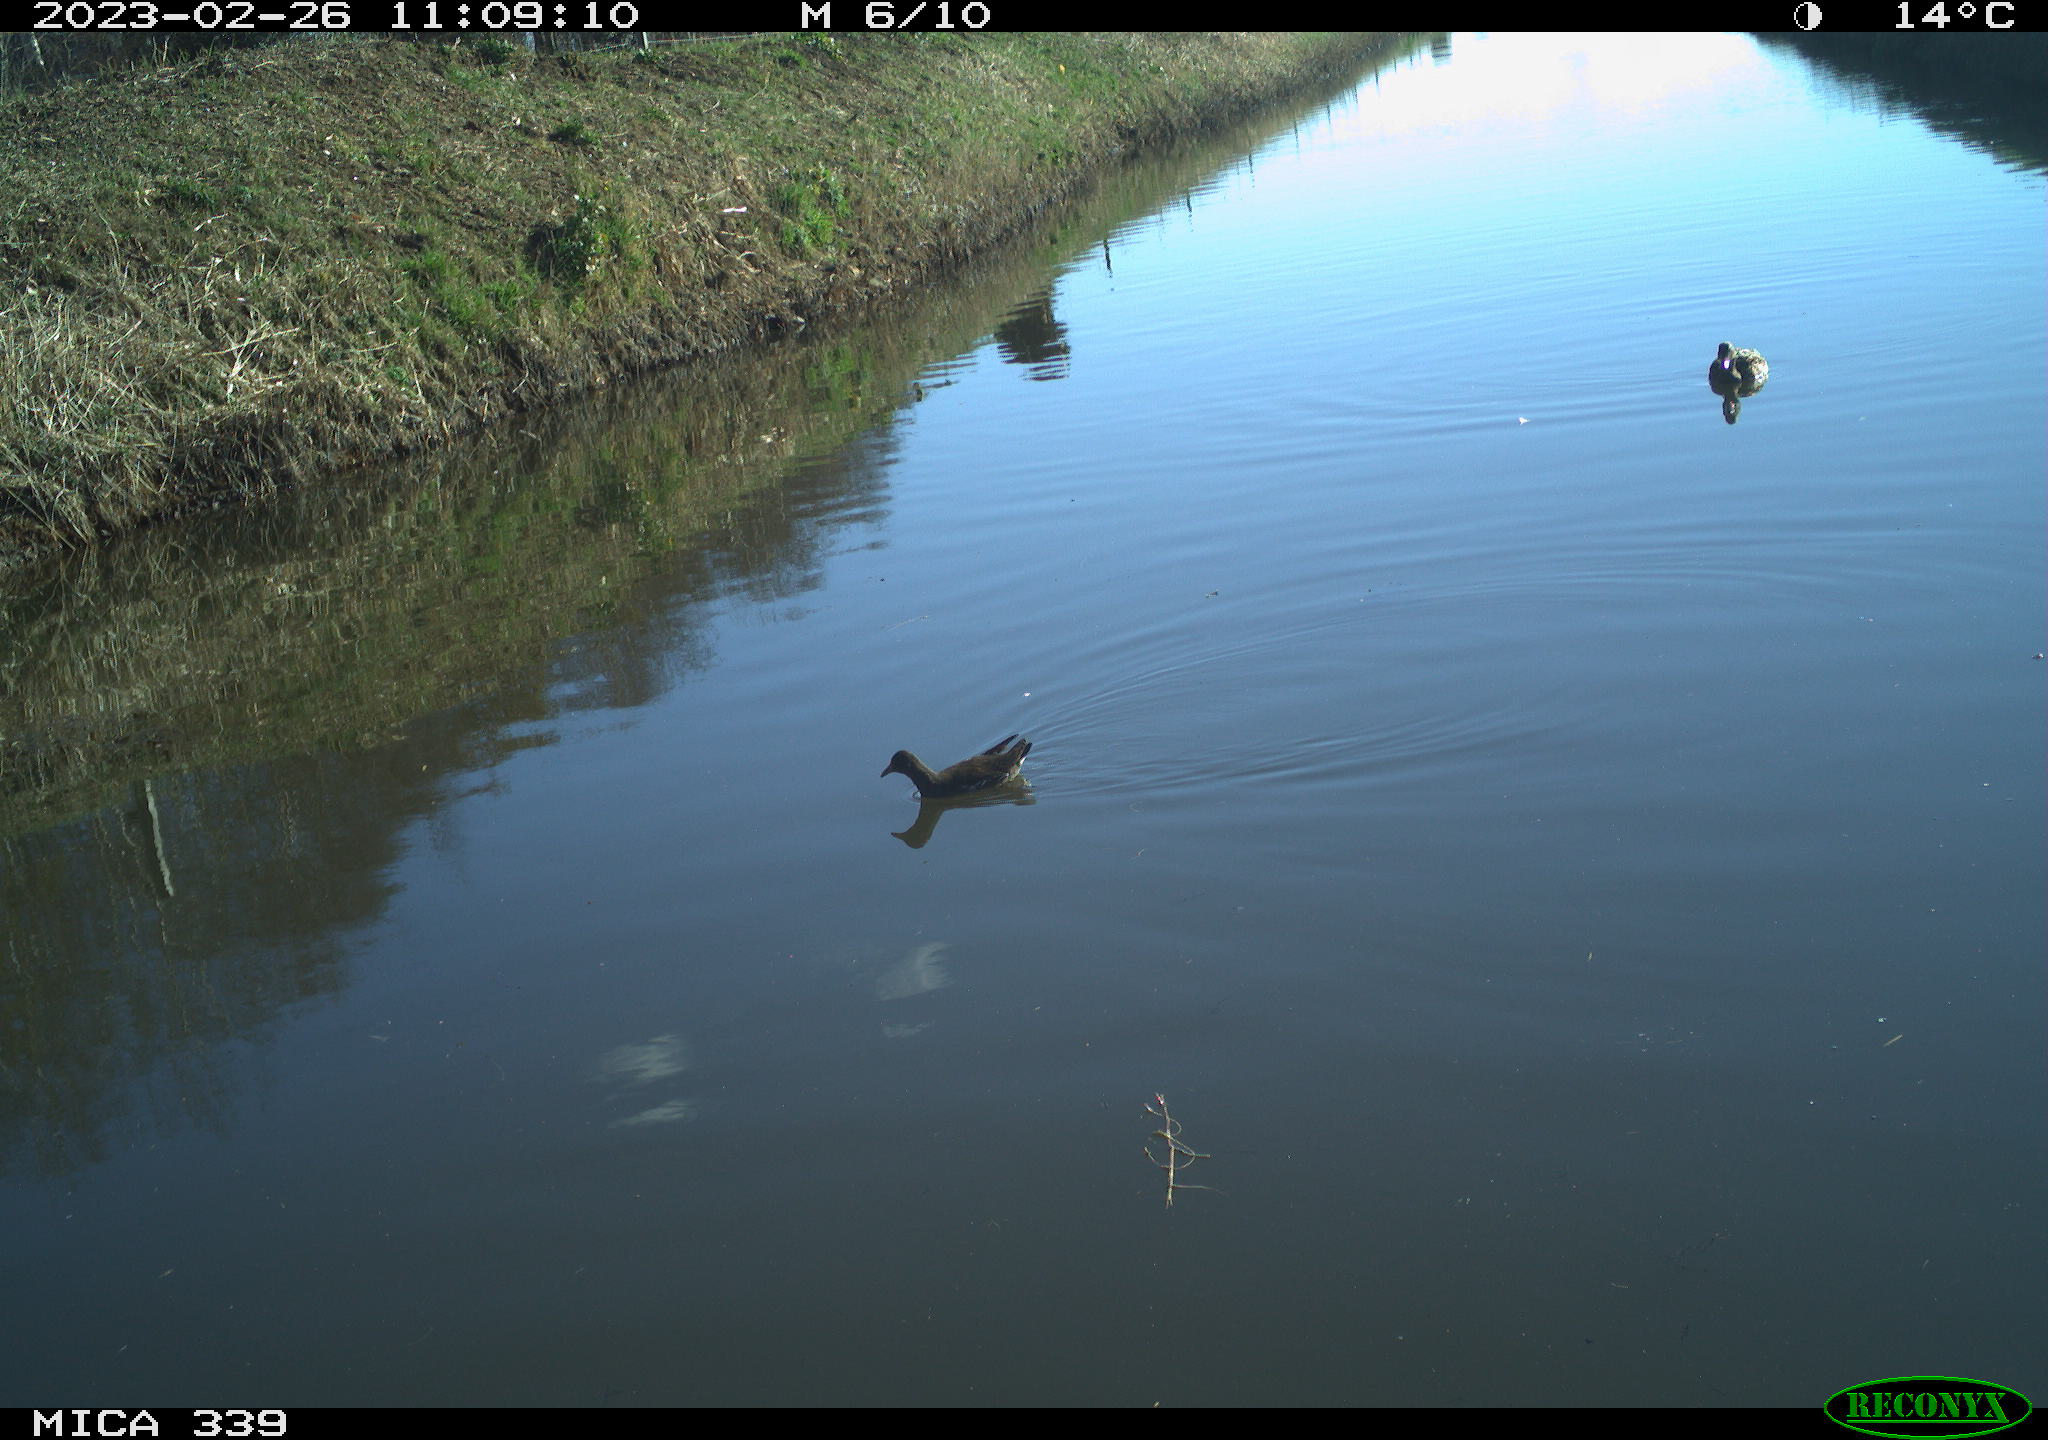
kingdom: Animalia
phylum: Chordata
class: Aves
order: Anseriformes
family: Anatidae
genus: Anas
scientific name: Anas
